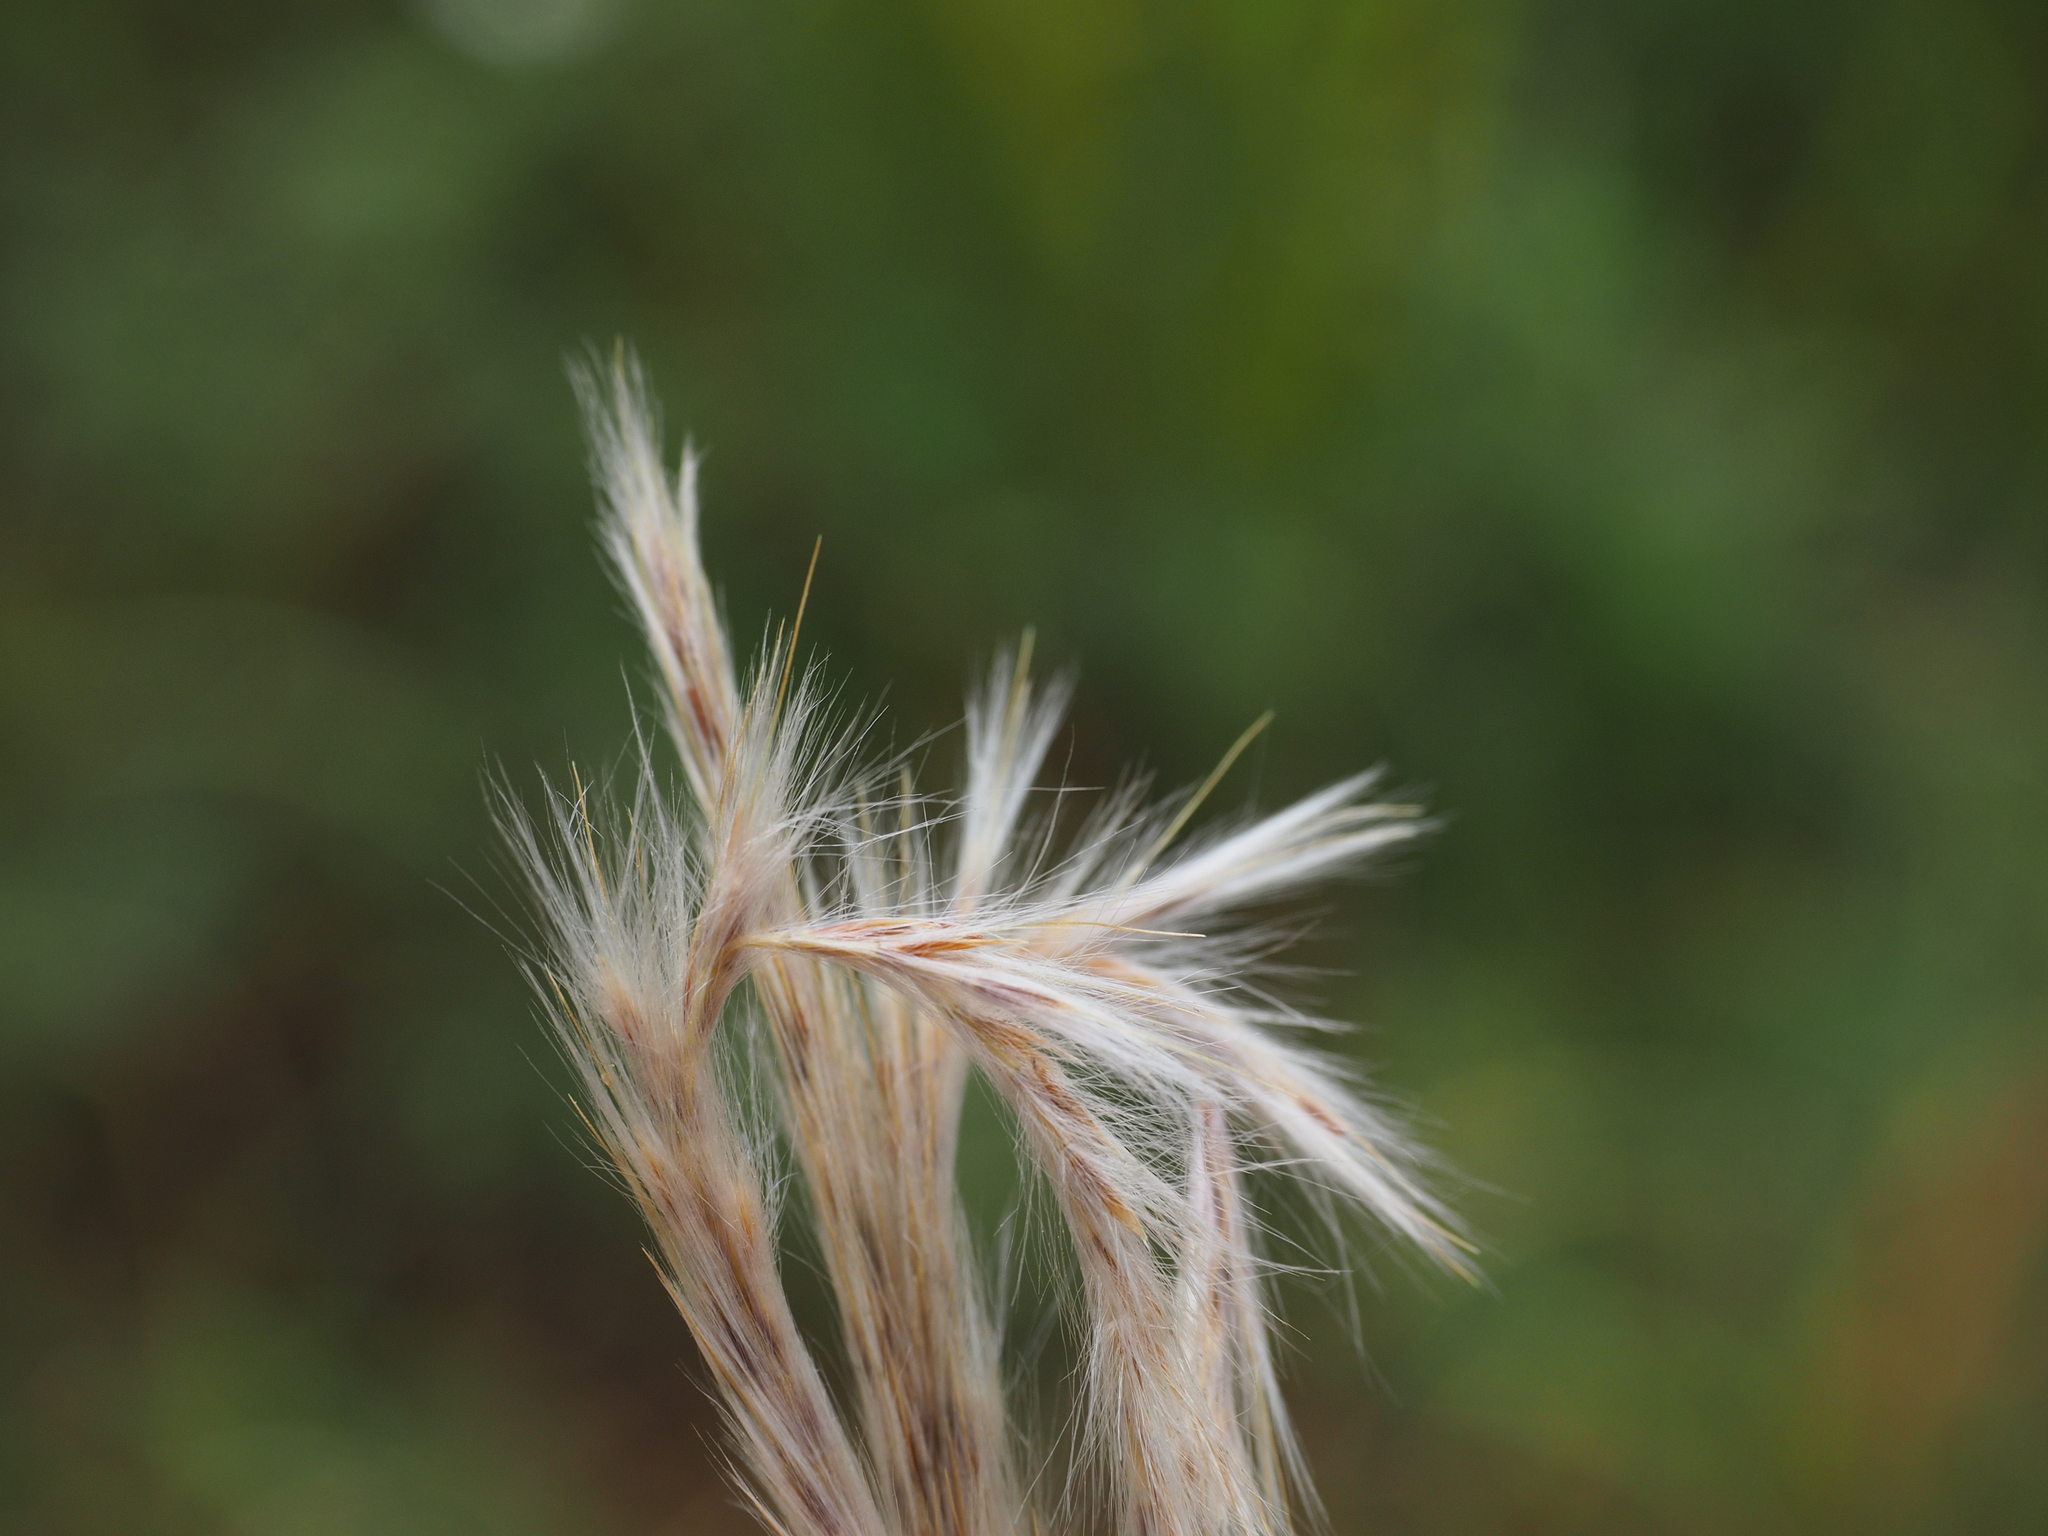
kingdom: Plantae
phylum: Tracheophyta
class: Liliopsida
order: Poales
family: Poaceae
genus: Saccharum
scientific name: Saccharum formosanum
